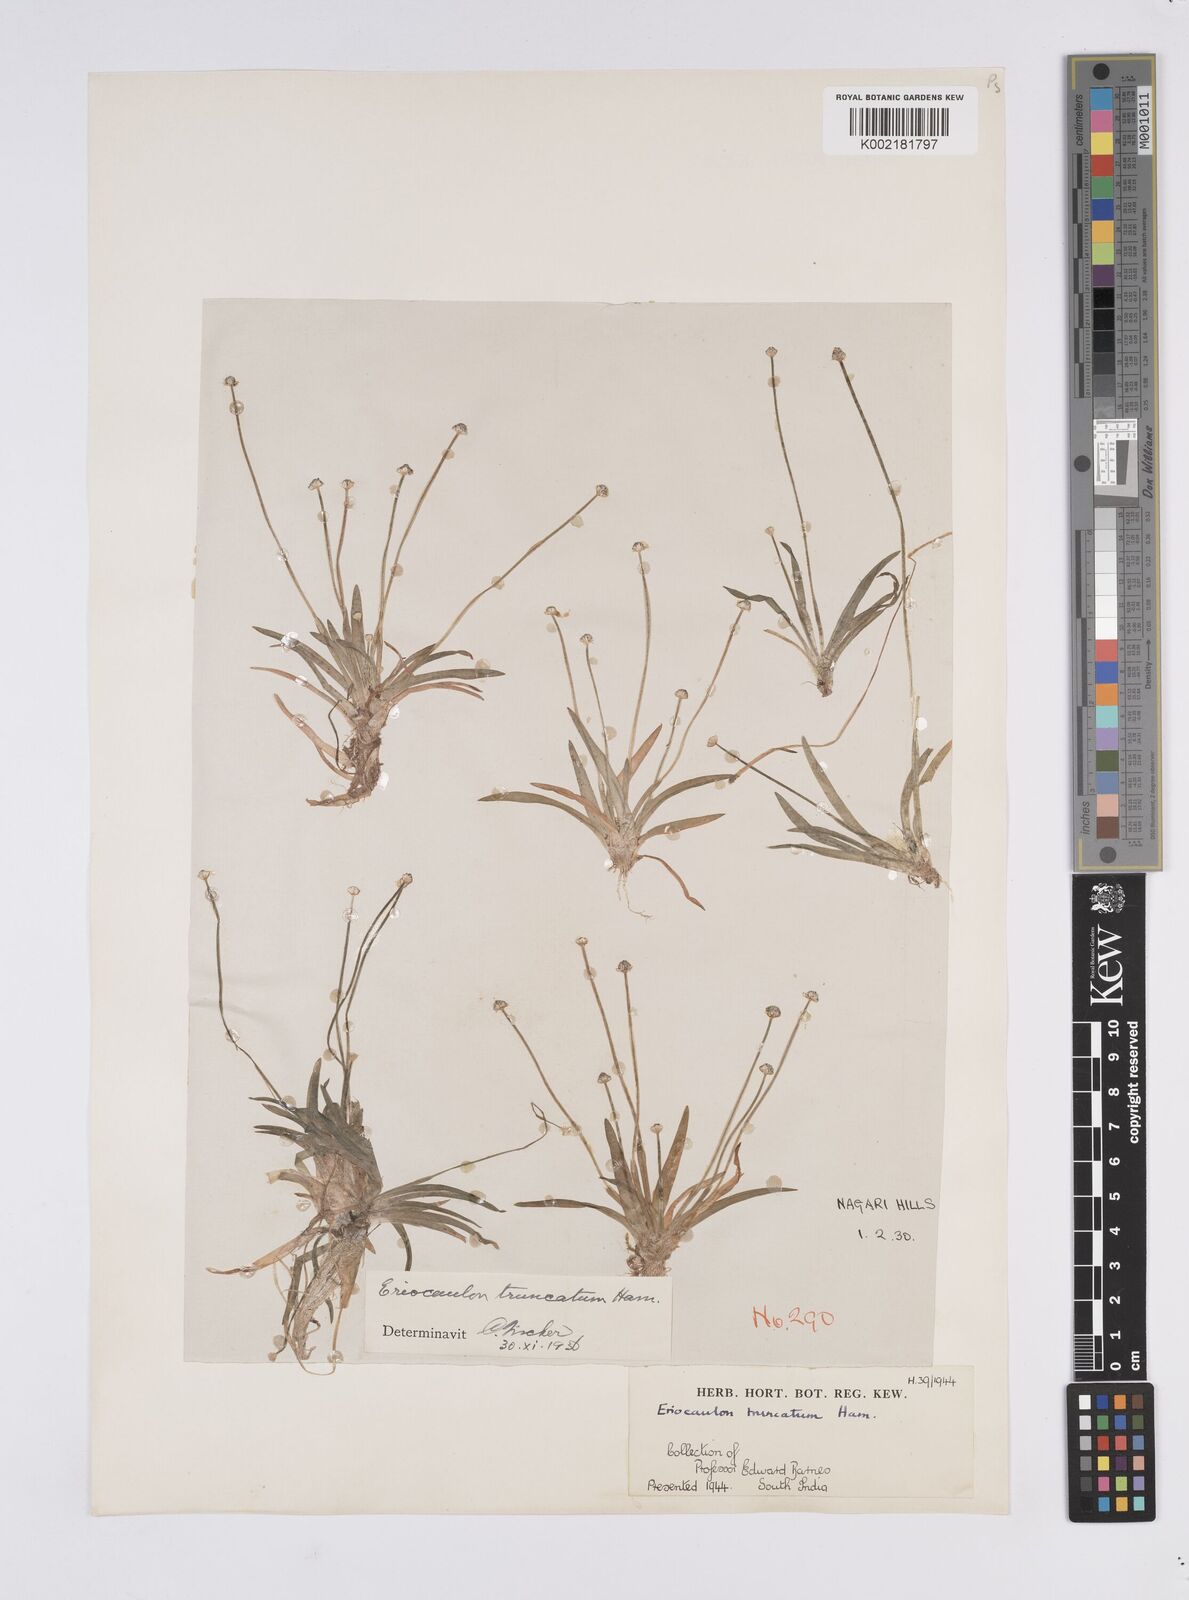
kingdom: Plantae
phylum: Tracheophyta
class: Liliopsida
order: Poales
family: Eriocaulaceae
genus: Eriocaulon
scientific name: Eriocaulon truncatum
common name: Short pipe-wort
